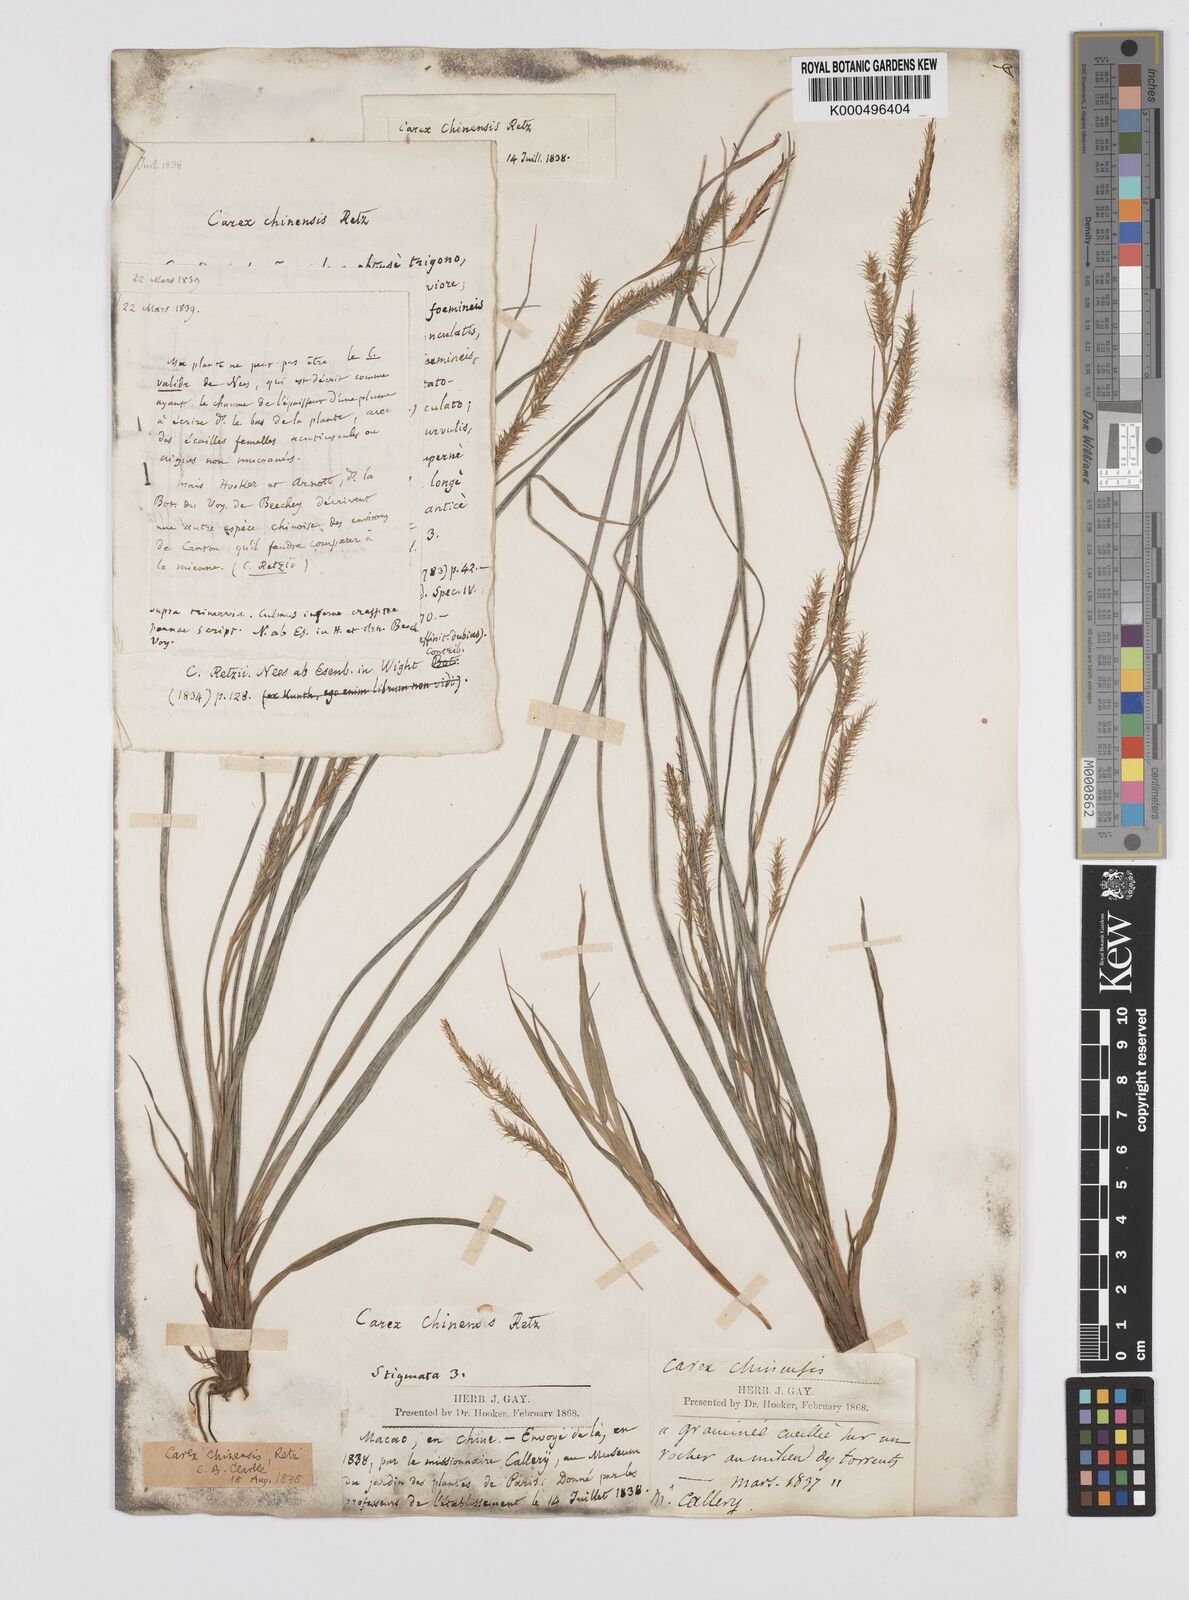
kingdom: Plantae
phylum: Tracheophyta
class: Liliopsida
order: Poales
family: Cyperaceae
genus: Carex
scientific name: Carex chinensis
